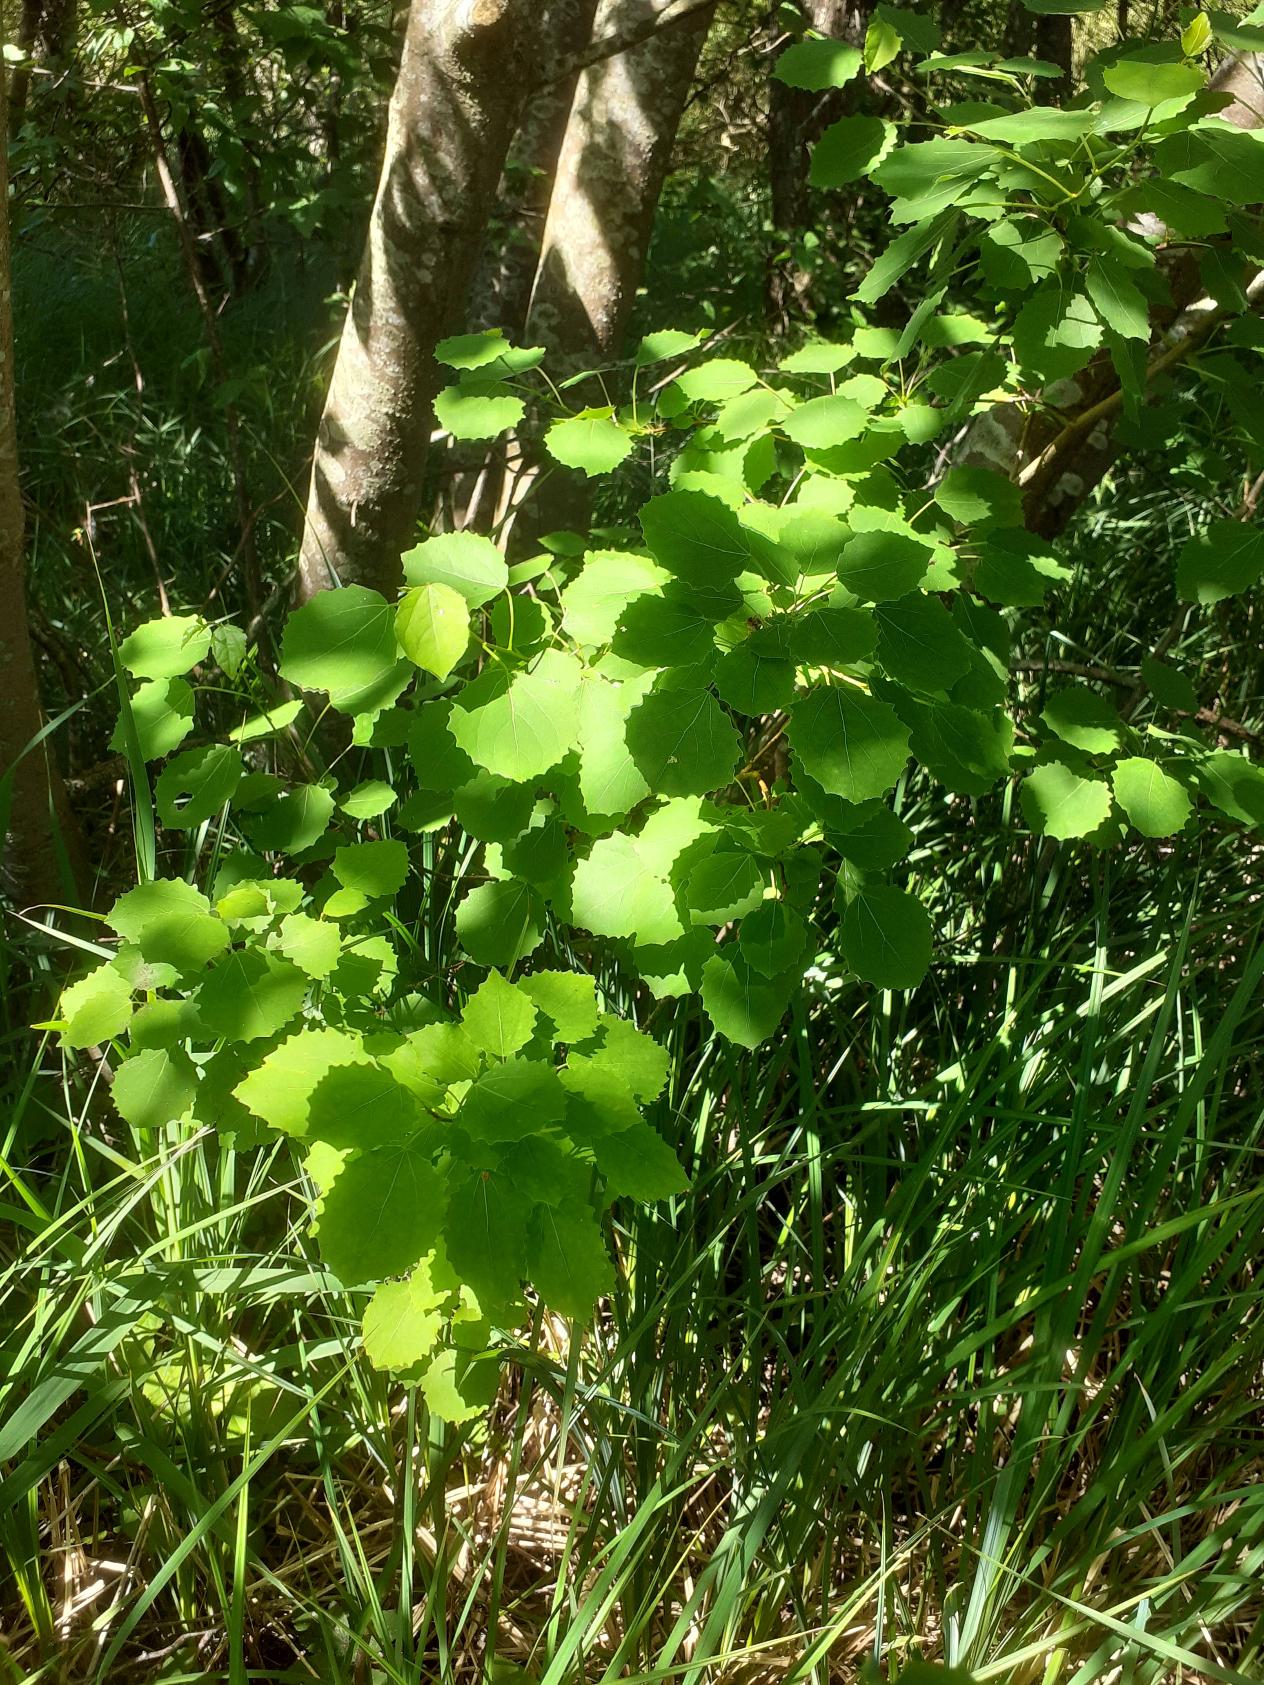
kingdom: Plantae
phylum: Tracheophyta
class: Magnoliopsida
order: Malpighiales
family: Salicaceae
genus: Populus
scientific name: Populus tremula
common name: Bævreasp
